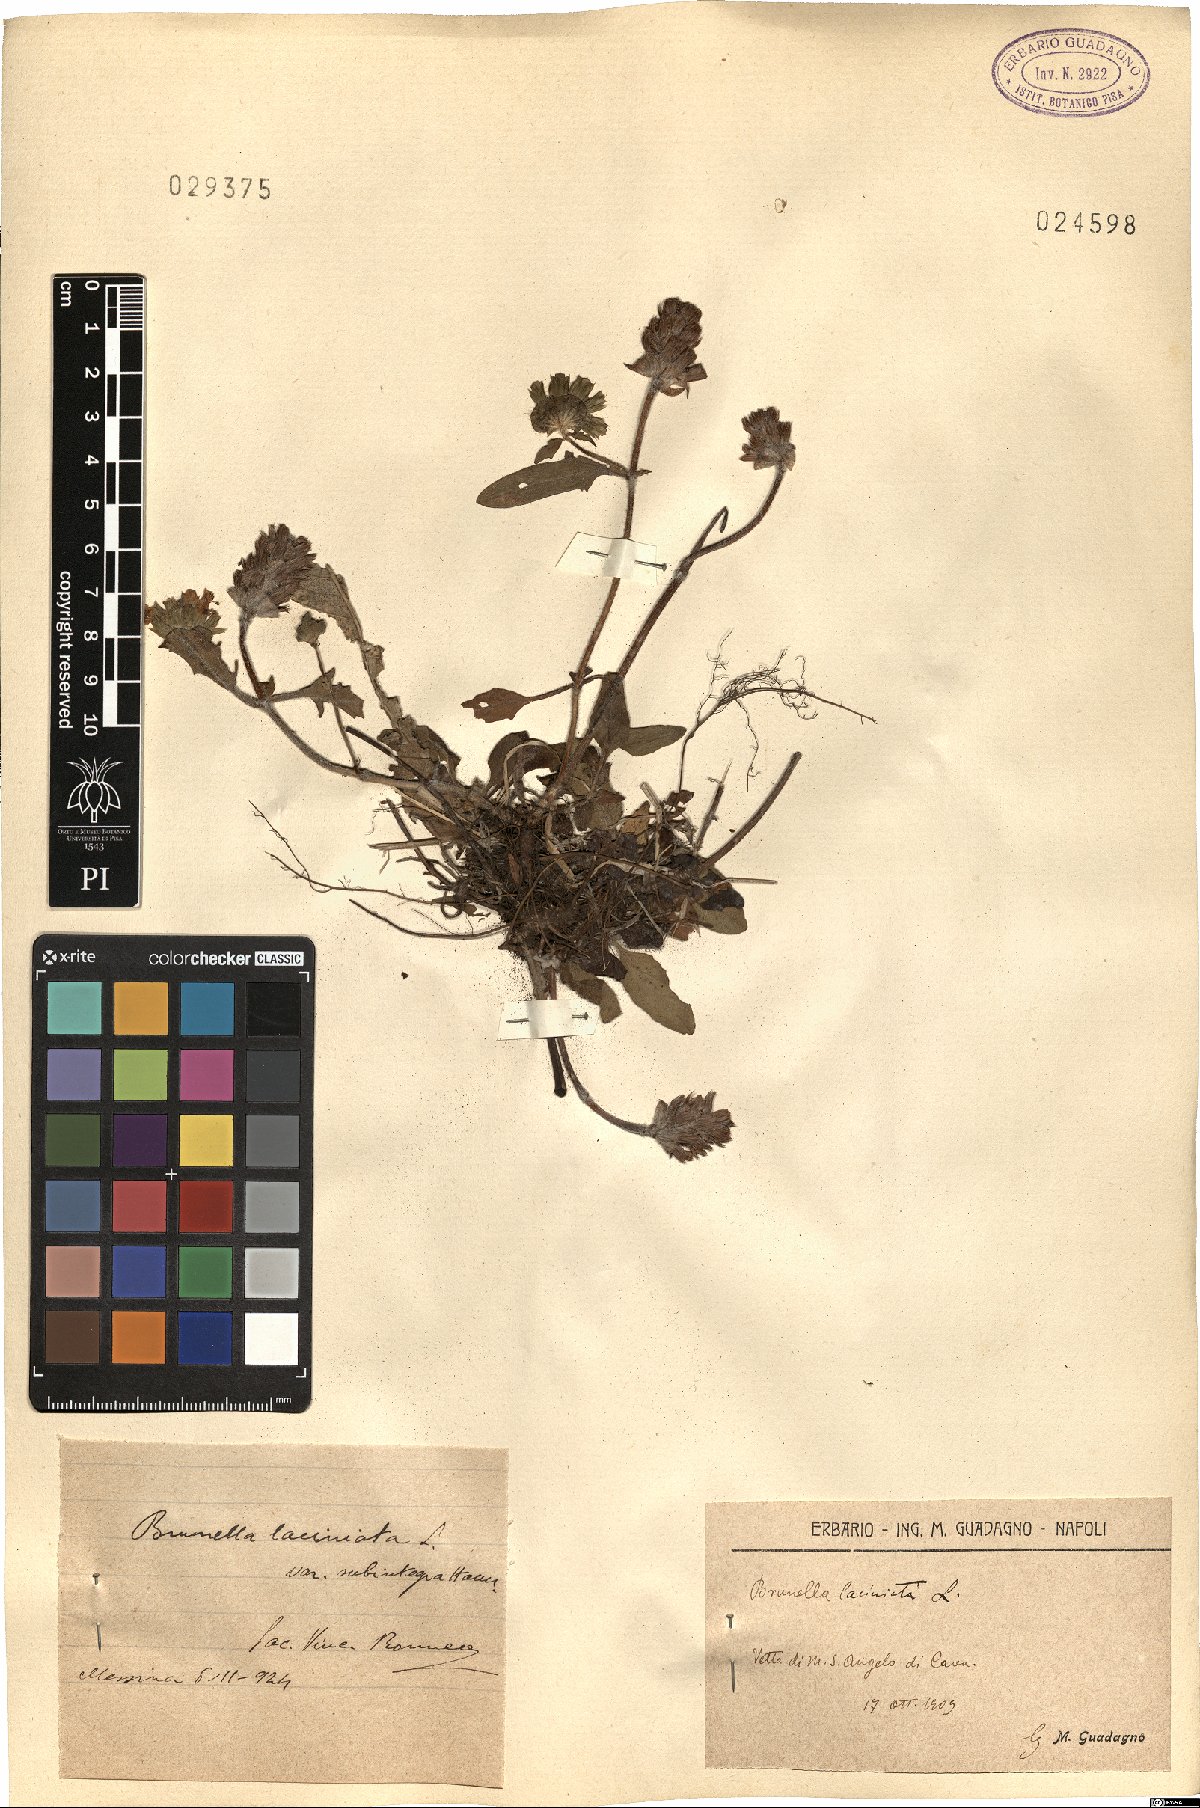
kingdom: Plantae
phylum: Tracheophyta
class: Magnoliopsida
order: Lamiales
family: Lamiaceae
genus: Prunella
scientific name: Prunella laciniata
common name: Cut-leaved selfheal
